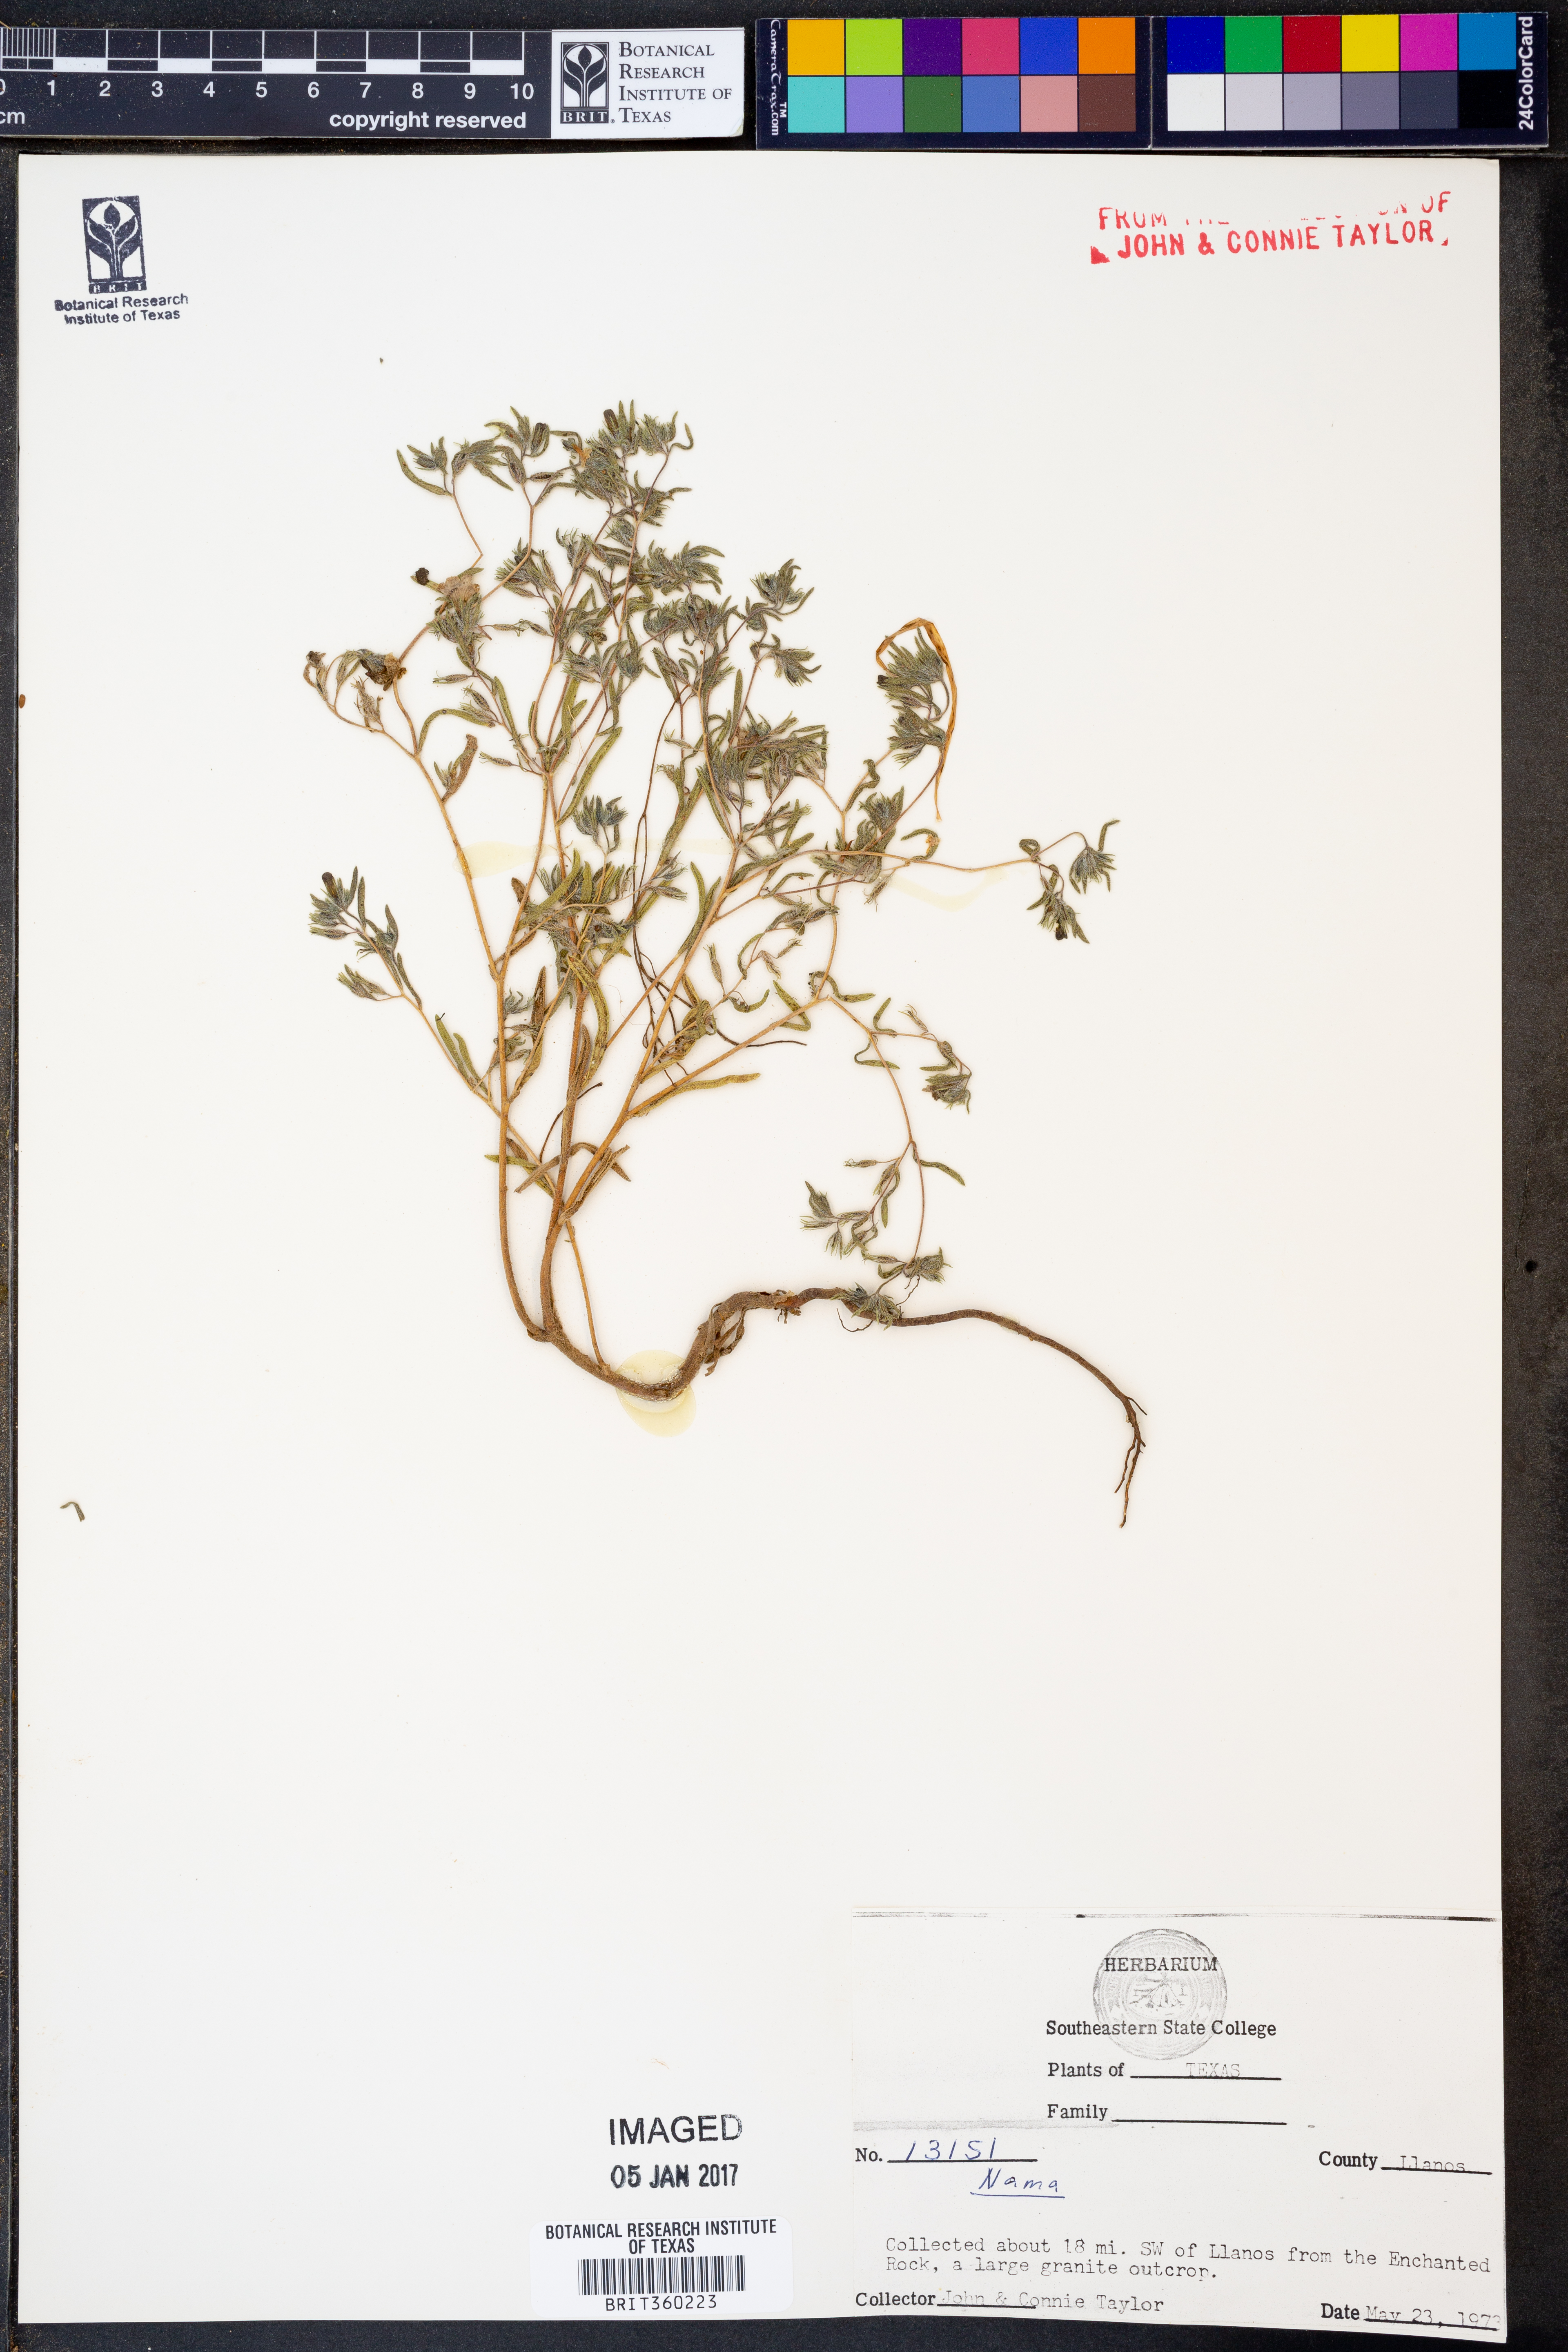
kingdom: Plantae
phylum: Tracheophyta
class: Magnoliopsida
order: Boraginales
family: Namaceae
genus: Nama
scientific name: Nama
